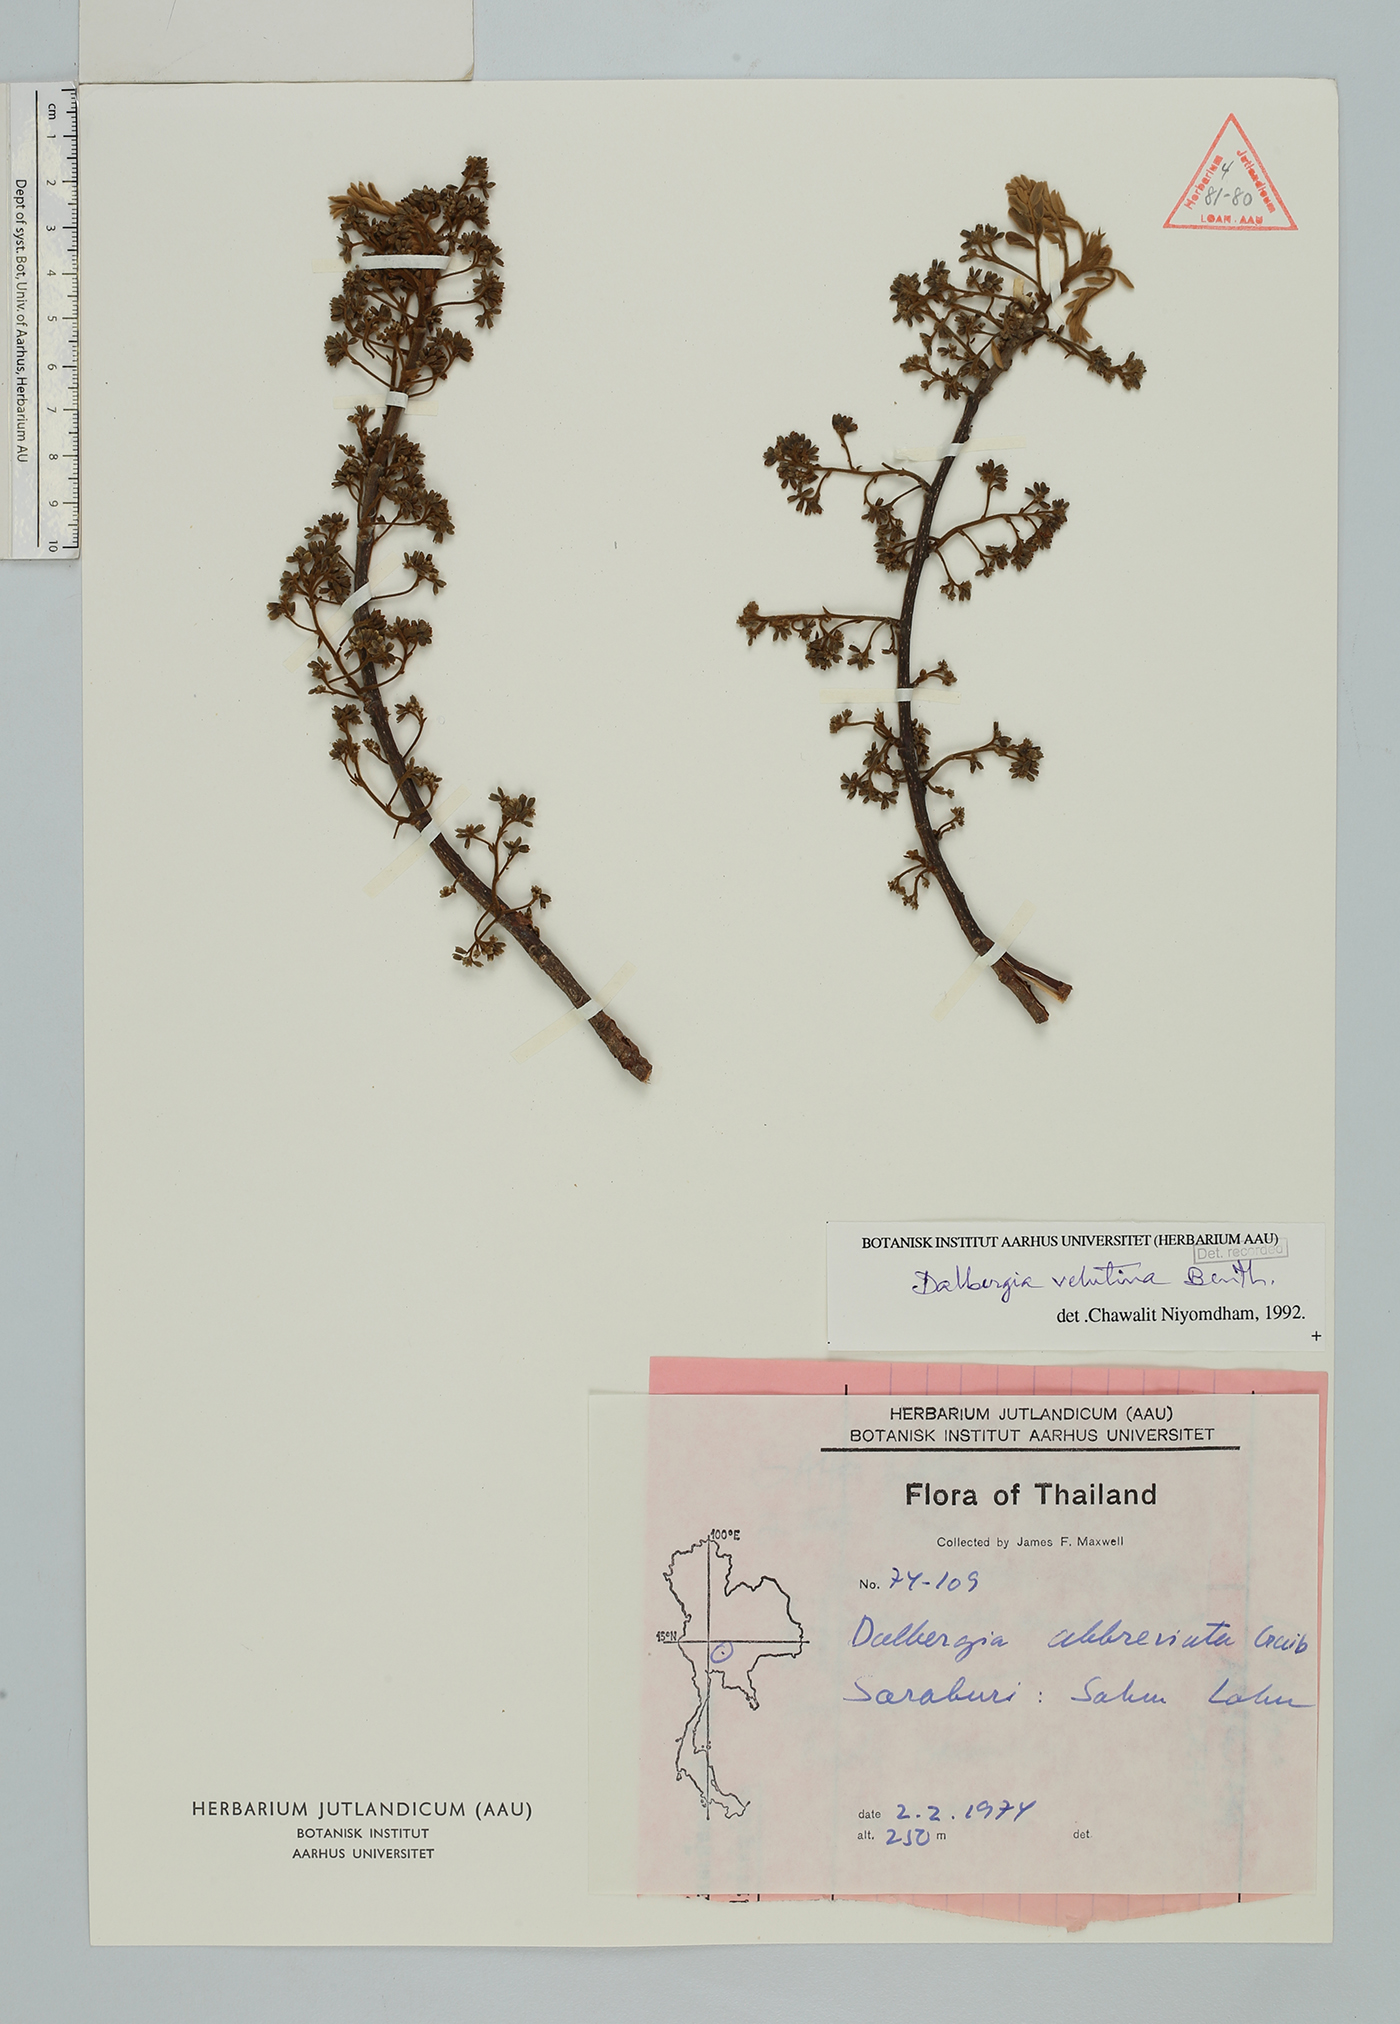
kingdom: Plantae
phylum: Tracheophyta
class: Magnoliopsida
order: Fabales
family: Fabaceae
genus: Dalbergia
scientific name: Dalbergia velutina
